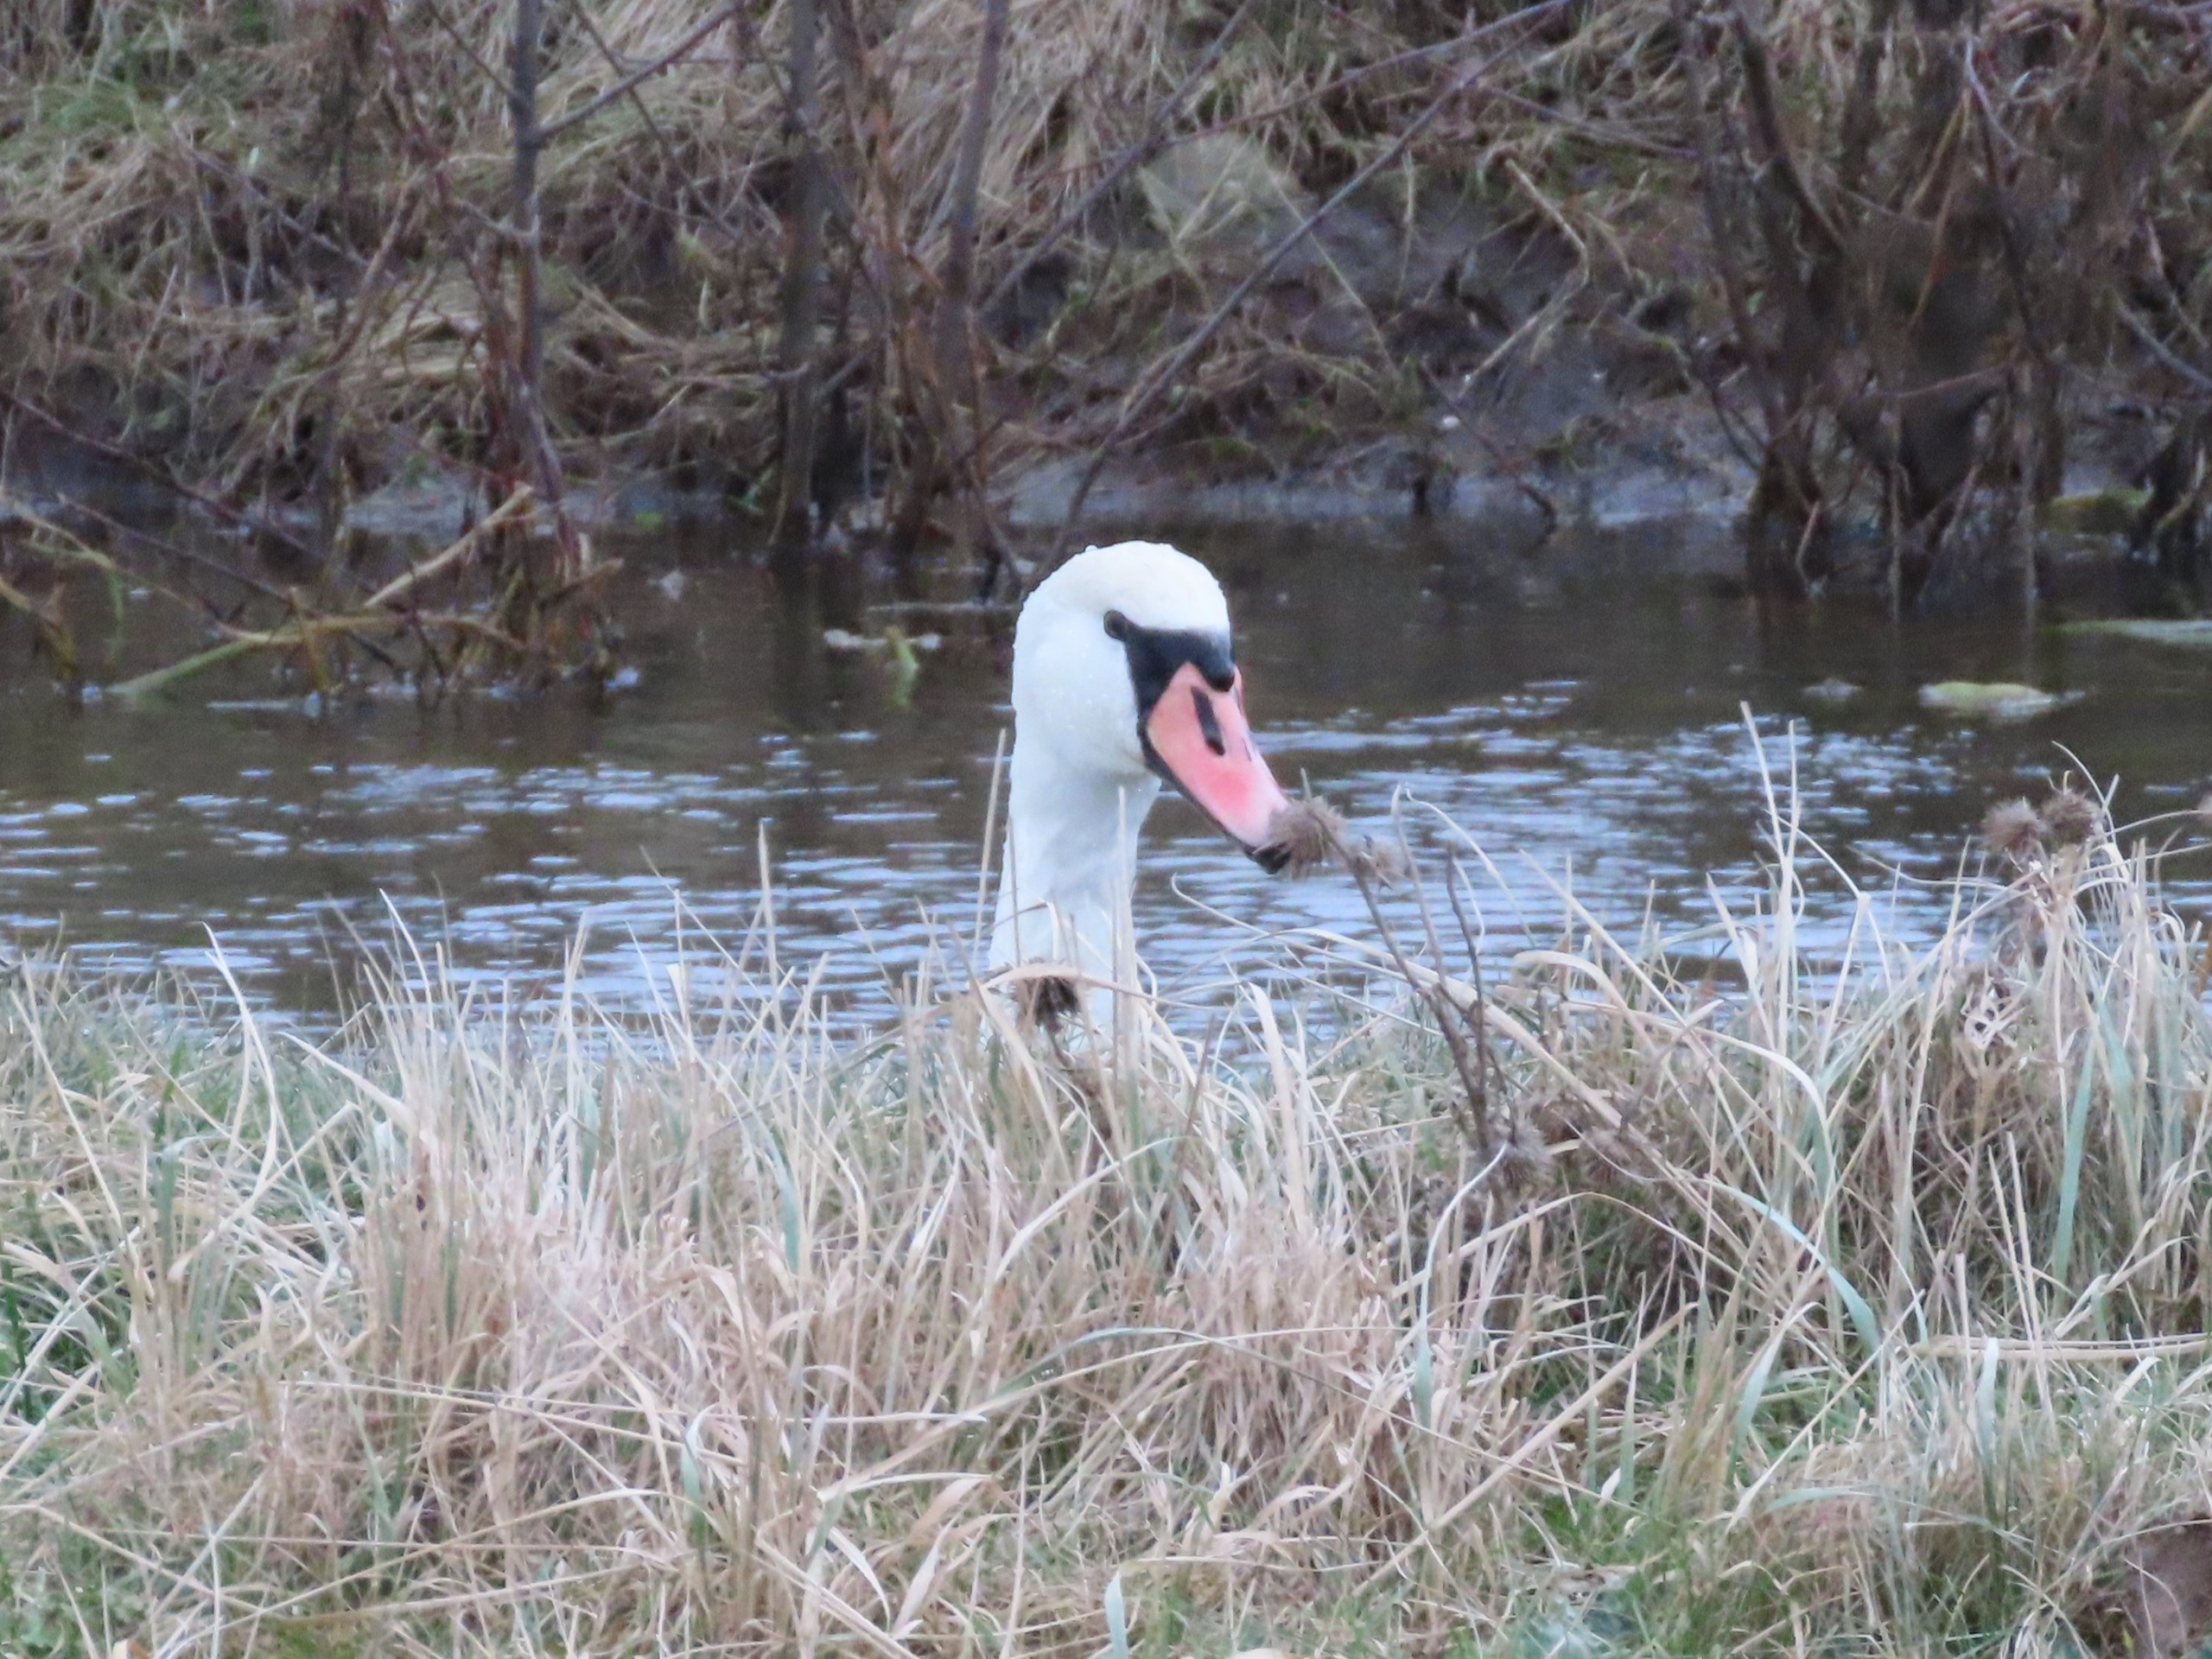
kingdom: Animalia
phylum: Chordata
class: Aves
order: Anseriformes
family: Anatidae
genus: Cygnus
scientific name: Cygnus olor
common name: Knopsvane
